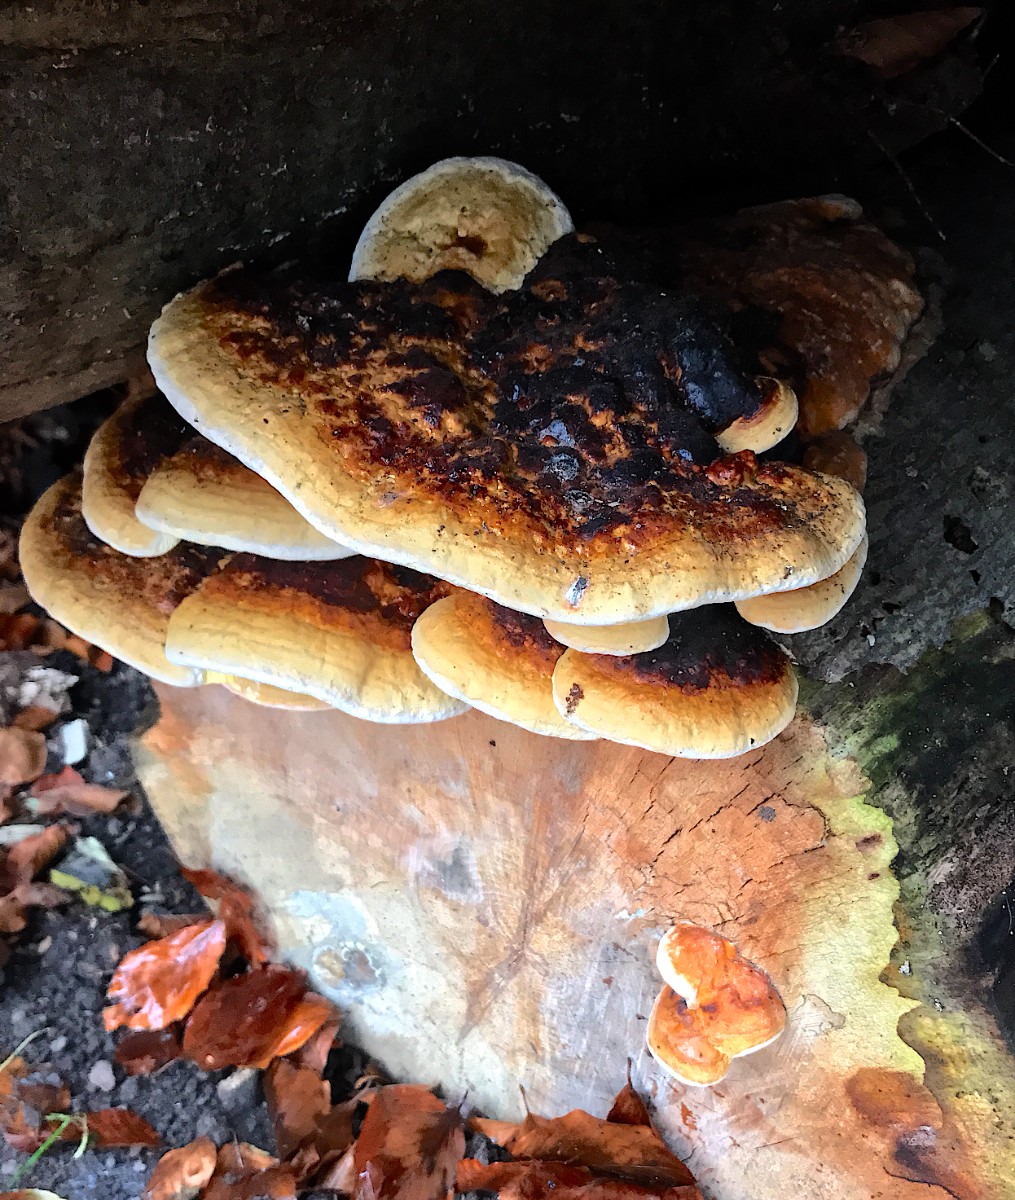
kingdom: Fungi
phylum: Basidiomycota
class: Agaricomycetes
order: Polyporales
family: Fomitopsidaceae
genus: Fomitopsis
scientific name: Fomitopsis pinicola
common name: randbæltet hovporesvamp
